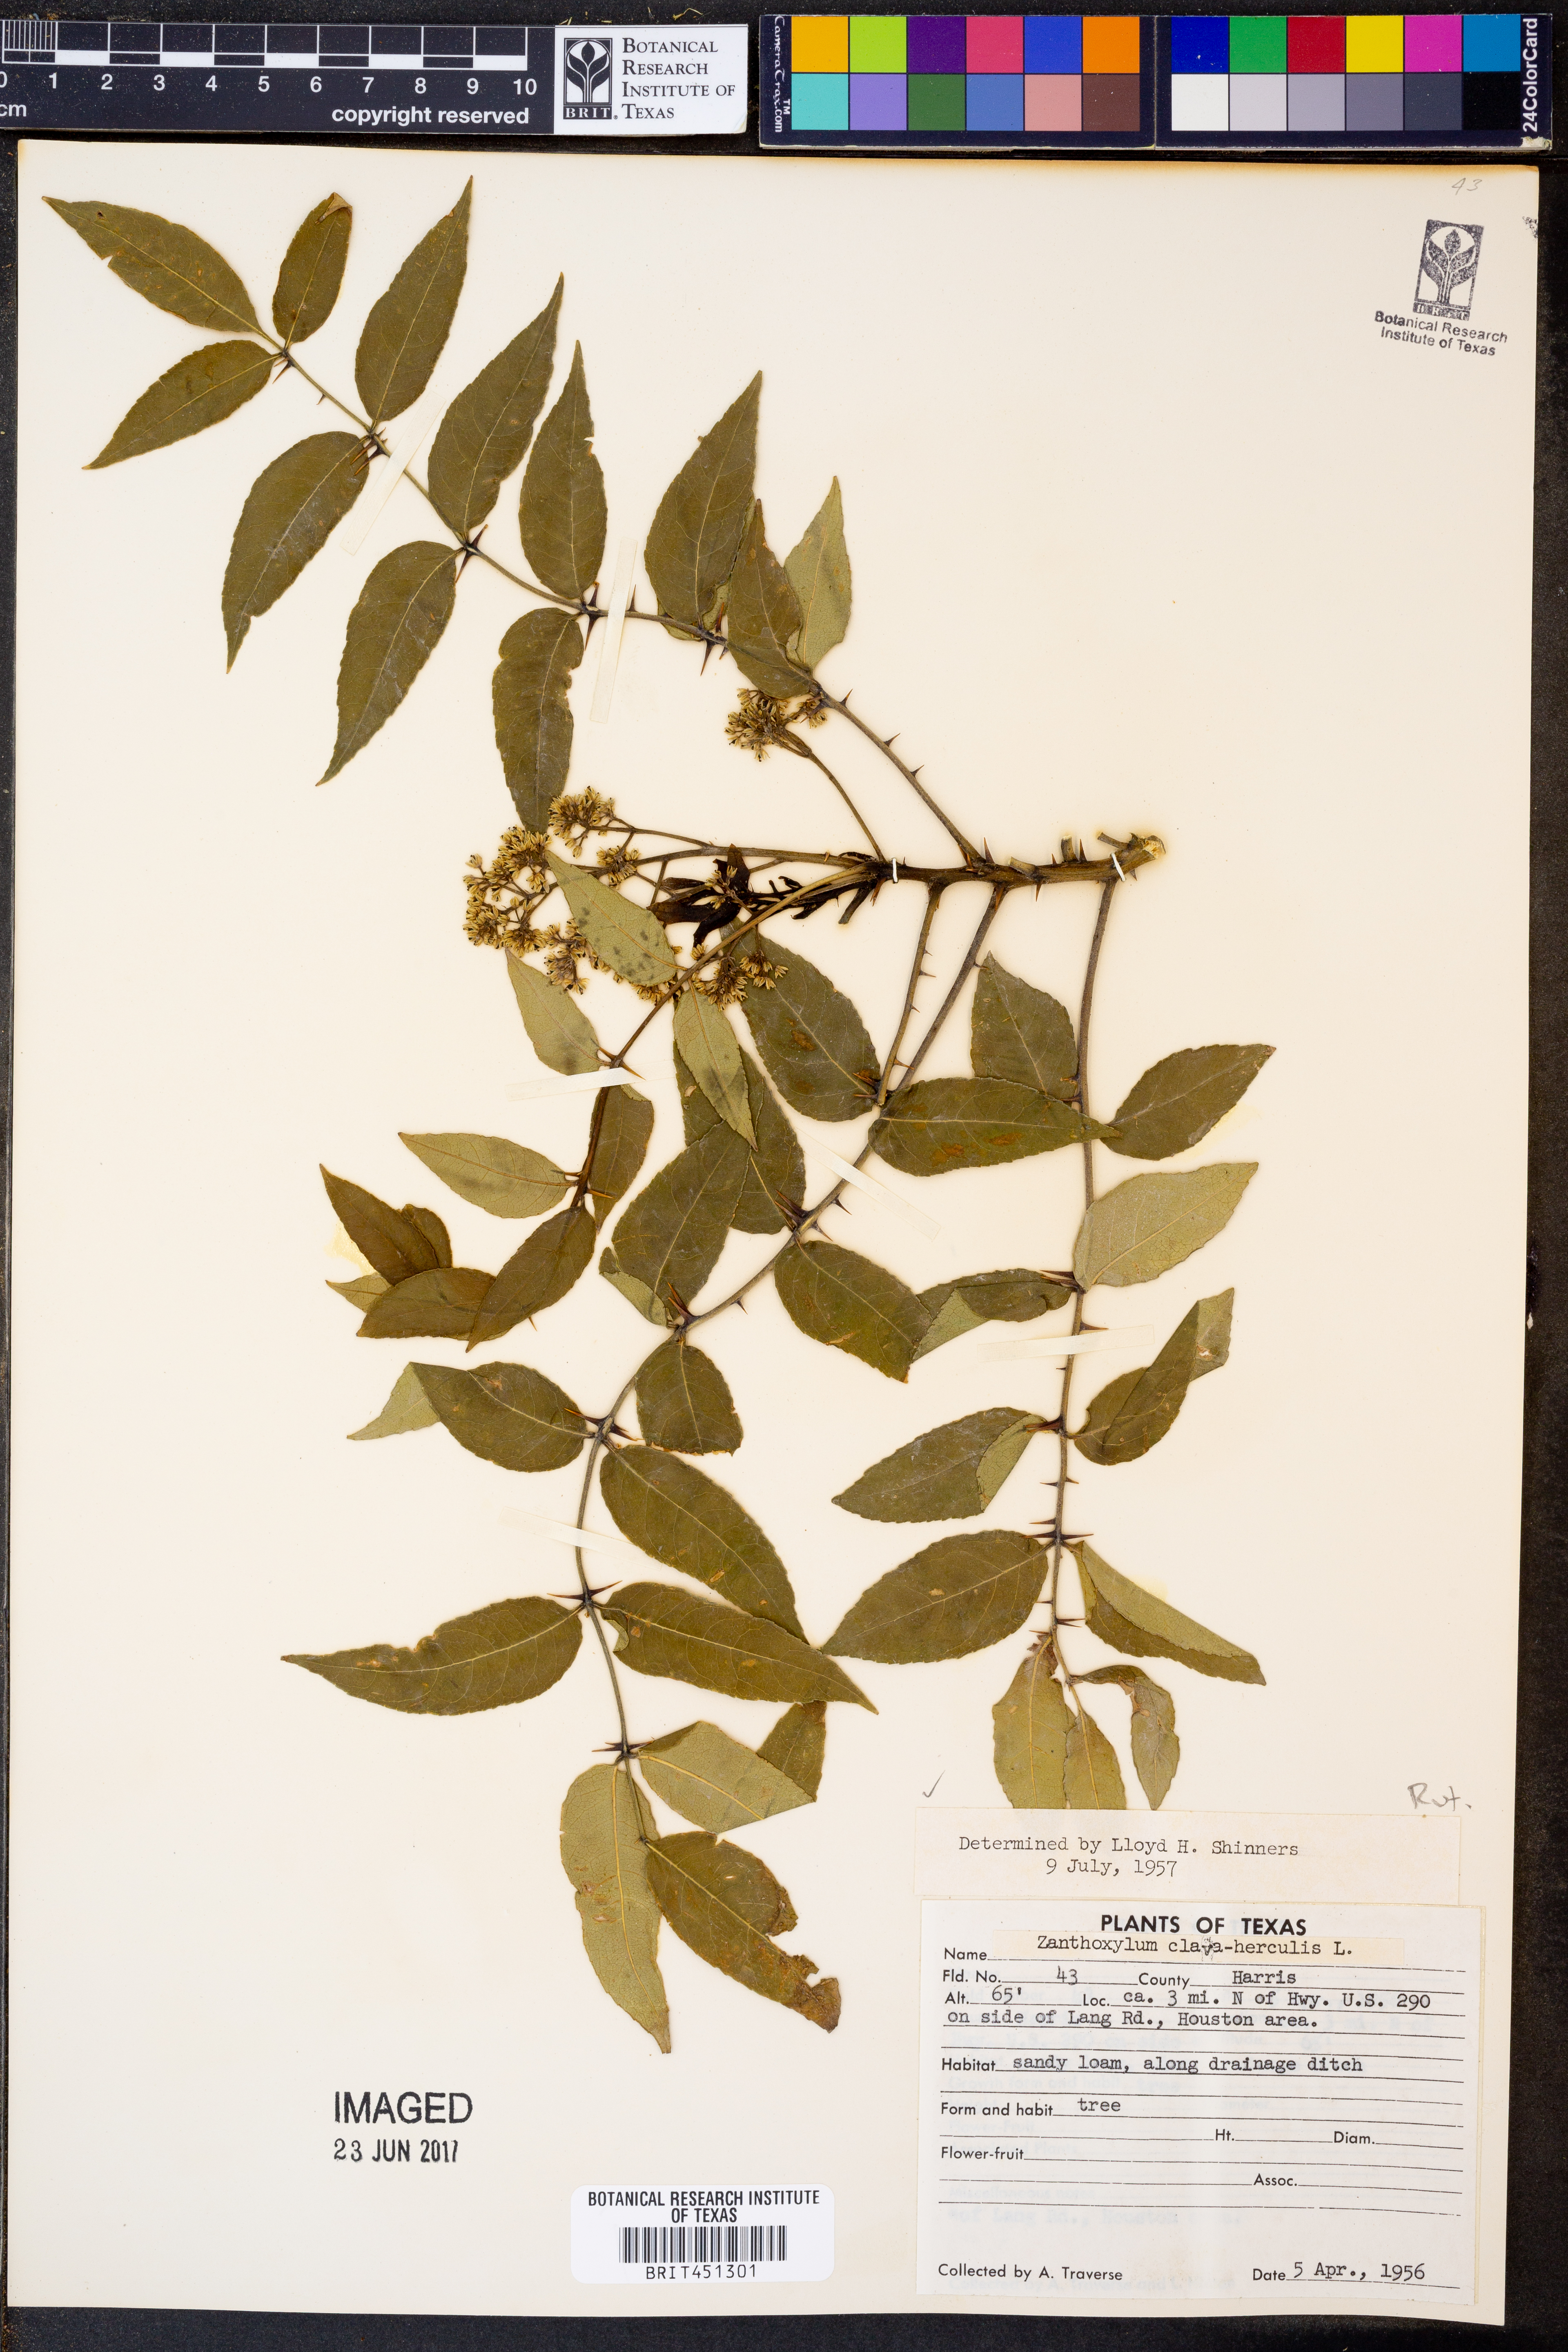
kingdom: Plantae
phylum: Tracheophyta
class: Magnoliopsida
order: Sapindales
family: Rutaceae
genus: Zanthoxylum
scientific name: Zanthoxylum avicennae
